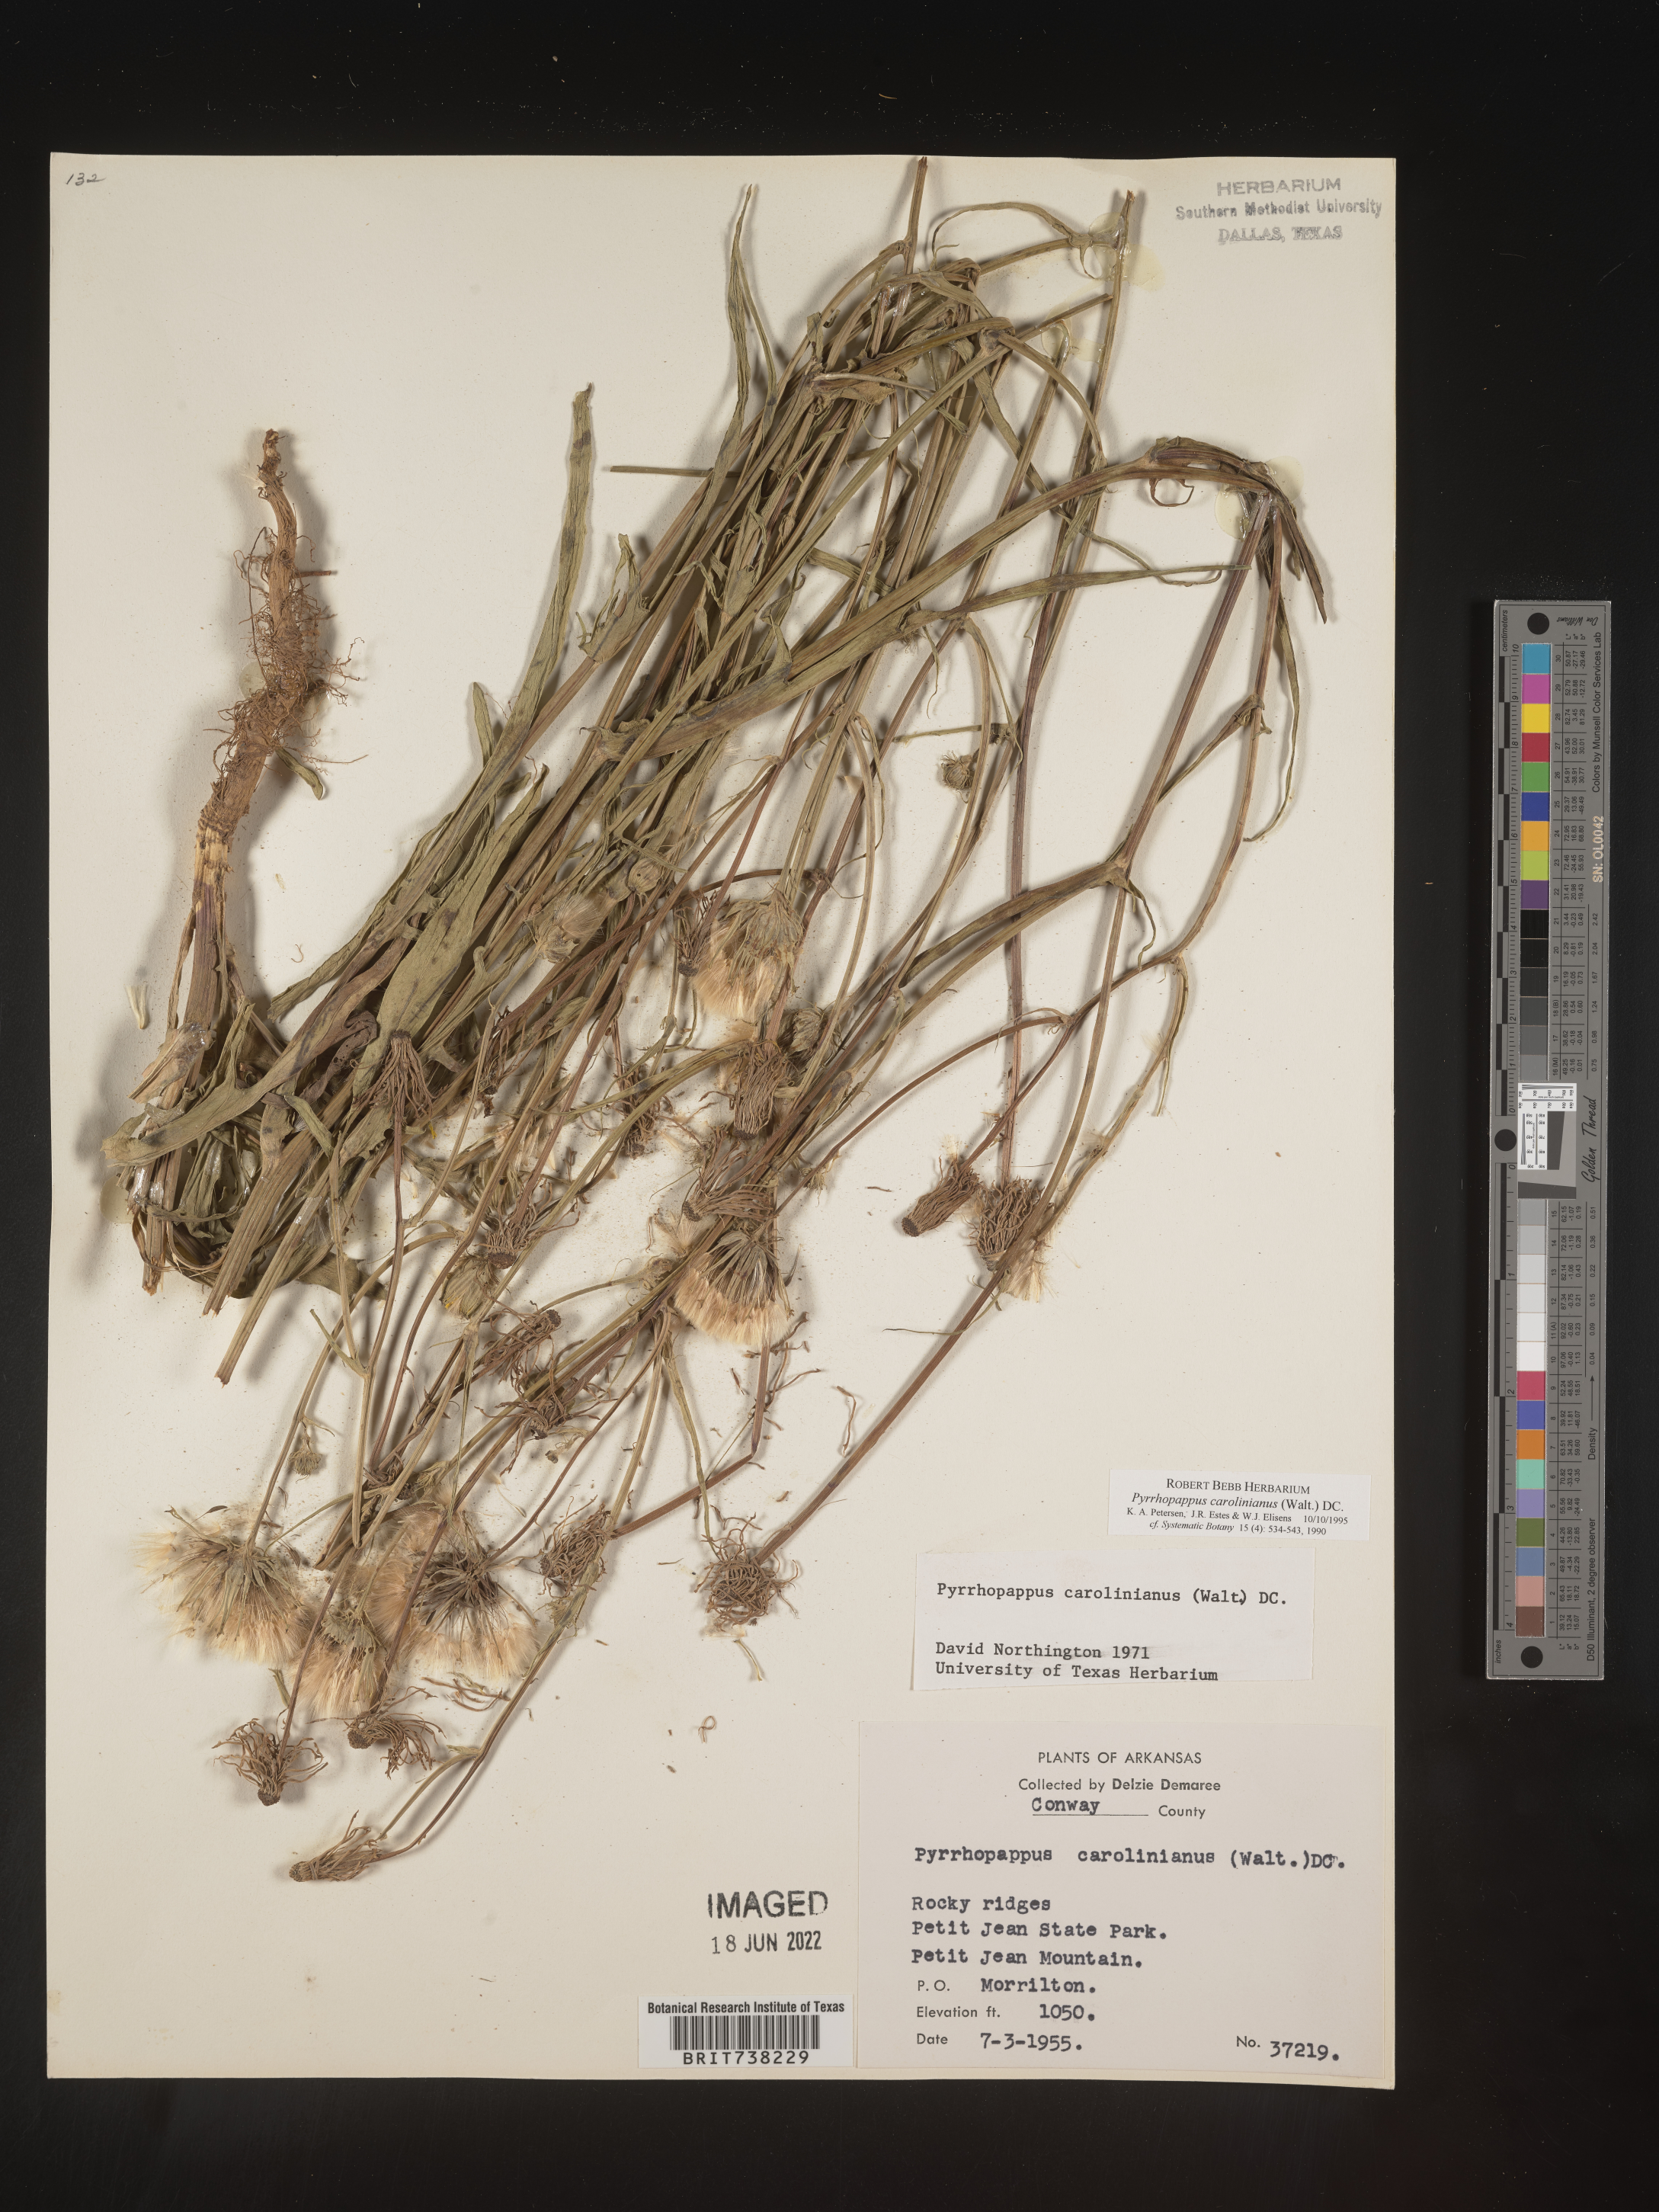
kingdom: Plantae
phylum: Tracheophyta
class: Magnoliopsida
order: Asterales
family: Asteraceae
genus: Pyrrhopappus
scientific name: Pyrrhopappus carolinianus
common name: Carolina desert-chicory
